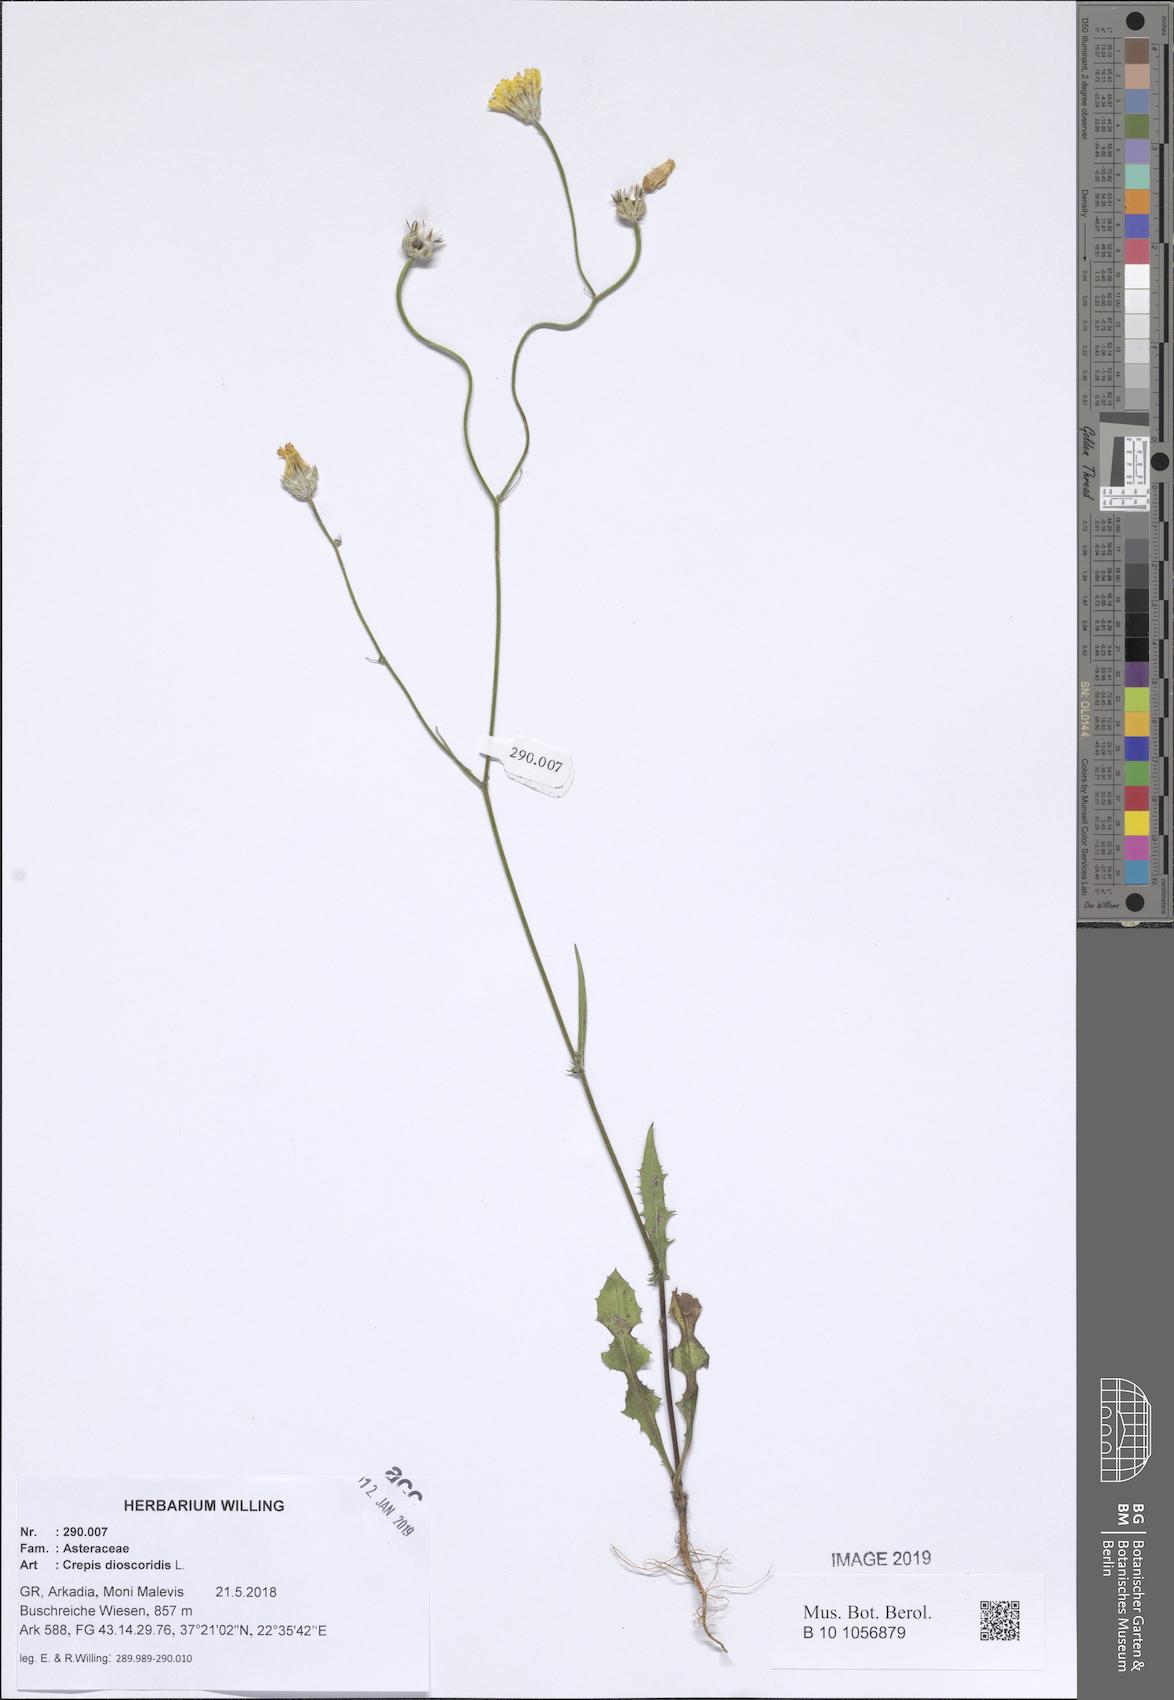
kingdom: Plantae
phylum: Tracheophyta
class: Magnoliopsida
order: Asterales
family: Asteraceae
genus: Crepis
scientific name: Crepis dioscoridis
